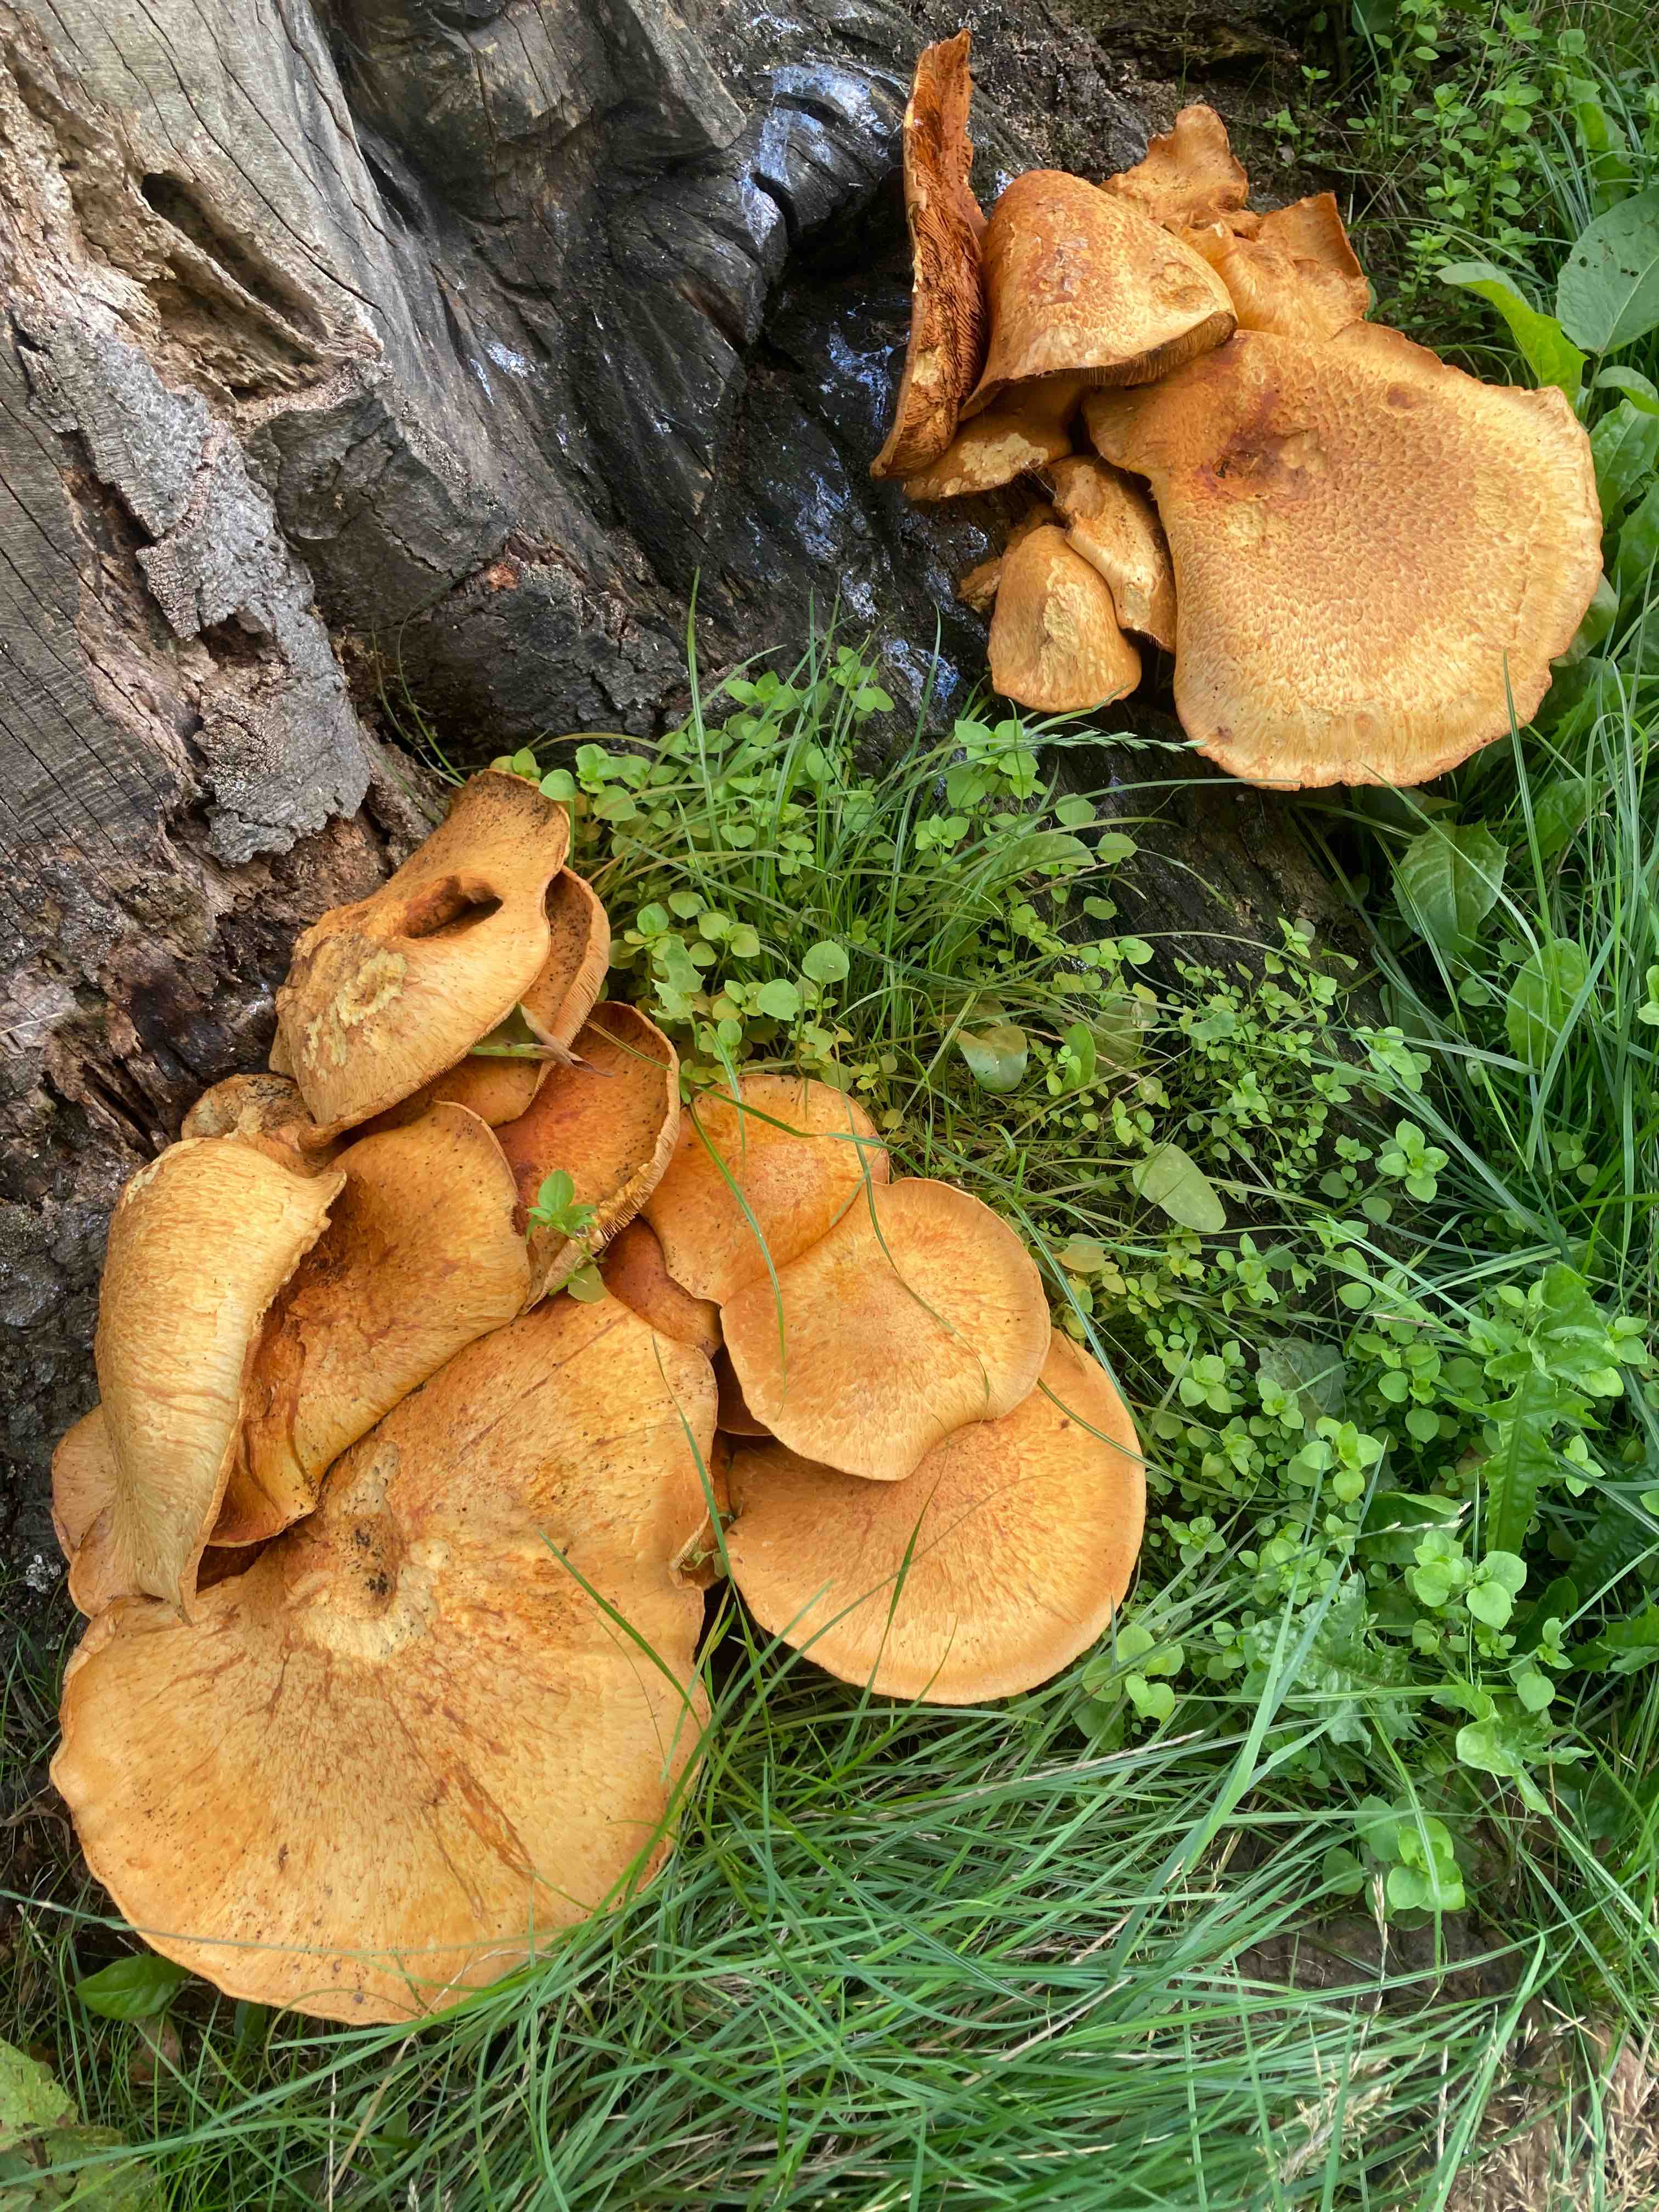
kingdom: Fungi
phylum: Basidiomycota
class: Agaricomycetes
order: Agaricales
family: Hymenogastraceae
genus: Gymnopilus
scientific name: Gymnopilus spectabilis
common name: fibret flammehat
